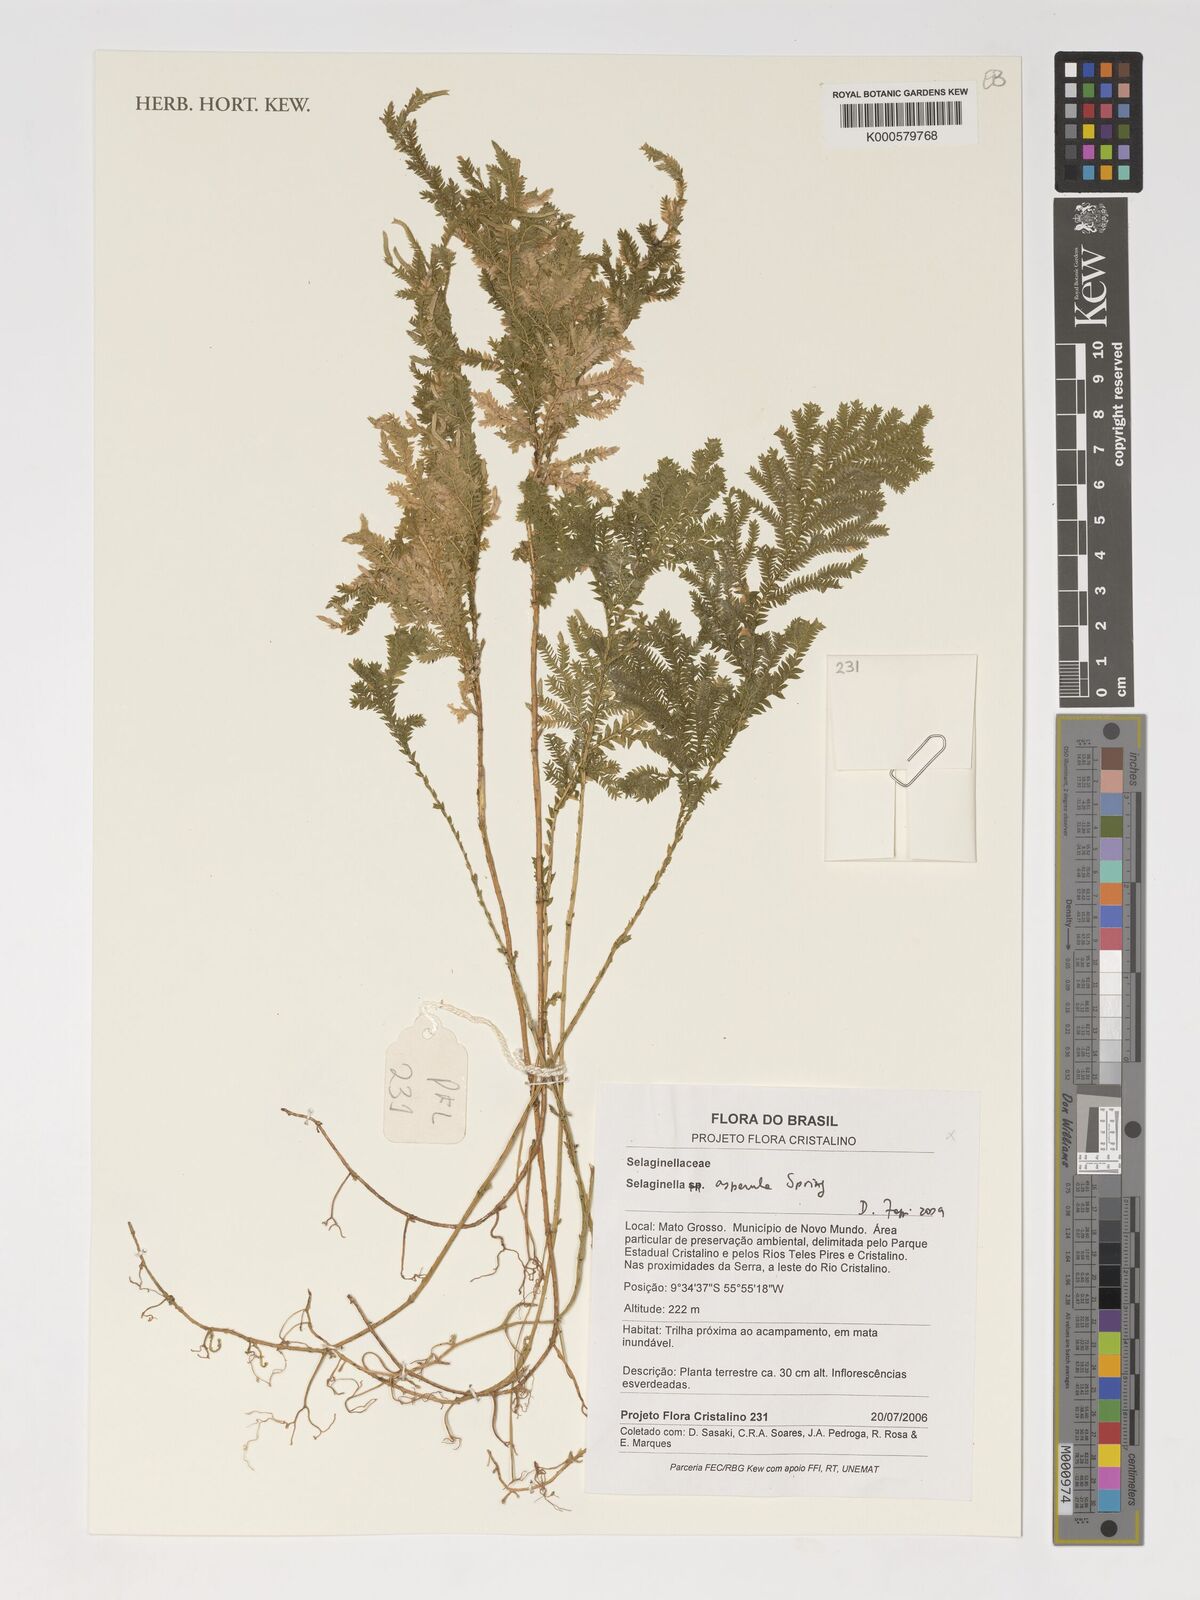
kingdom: Plantae
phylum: Tracheophyta
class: Lycopodiopsida
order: Selaginellales
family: Selaginellaceae
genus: Selaginella
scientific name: Selaginella asperula
